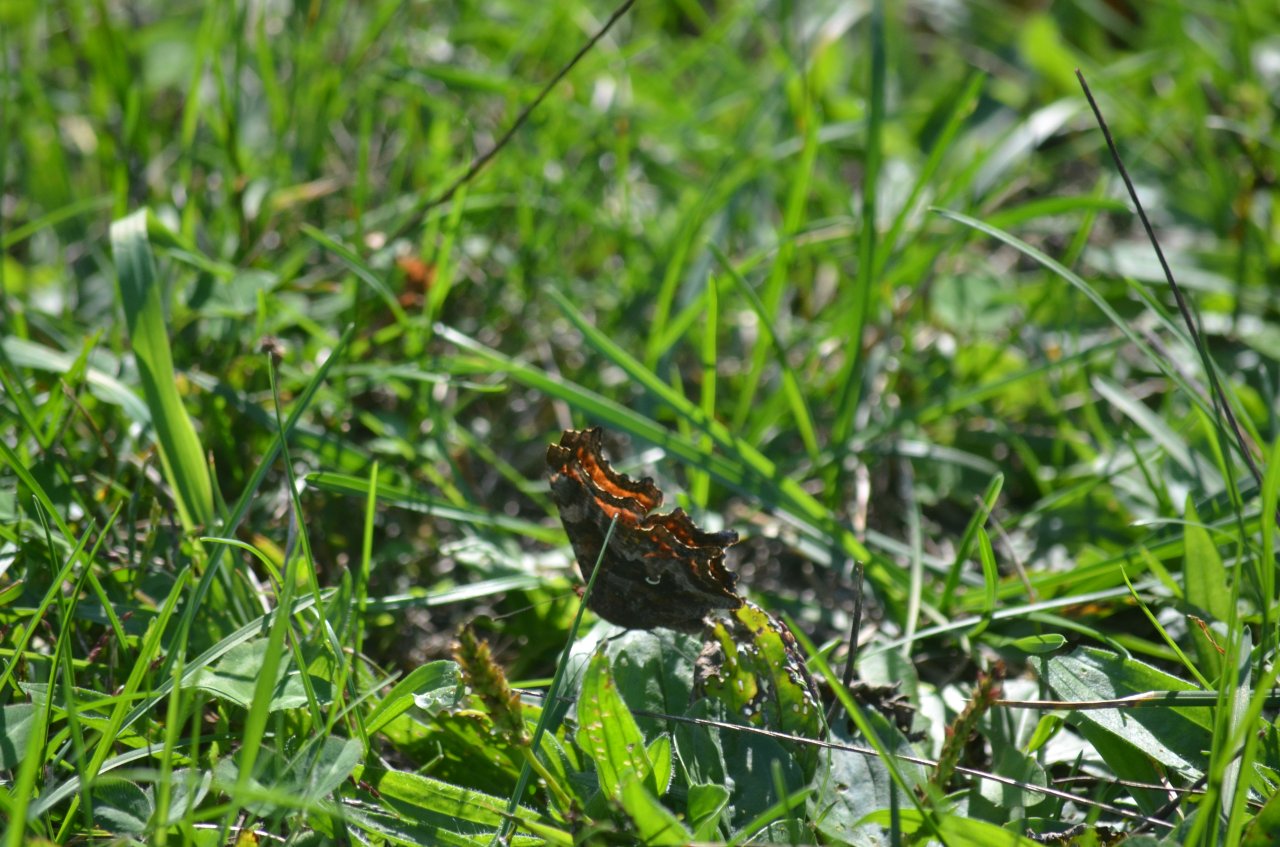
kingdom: Animalia
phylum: Arthropoda
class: Insecta
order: Lepidoptera
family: Nymphalidae
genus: Polygonia
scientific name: Polygonia comma
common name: Eastern Comma
